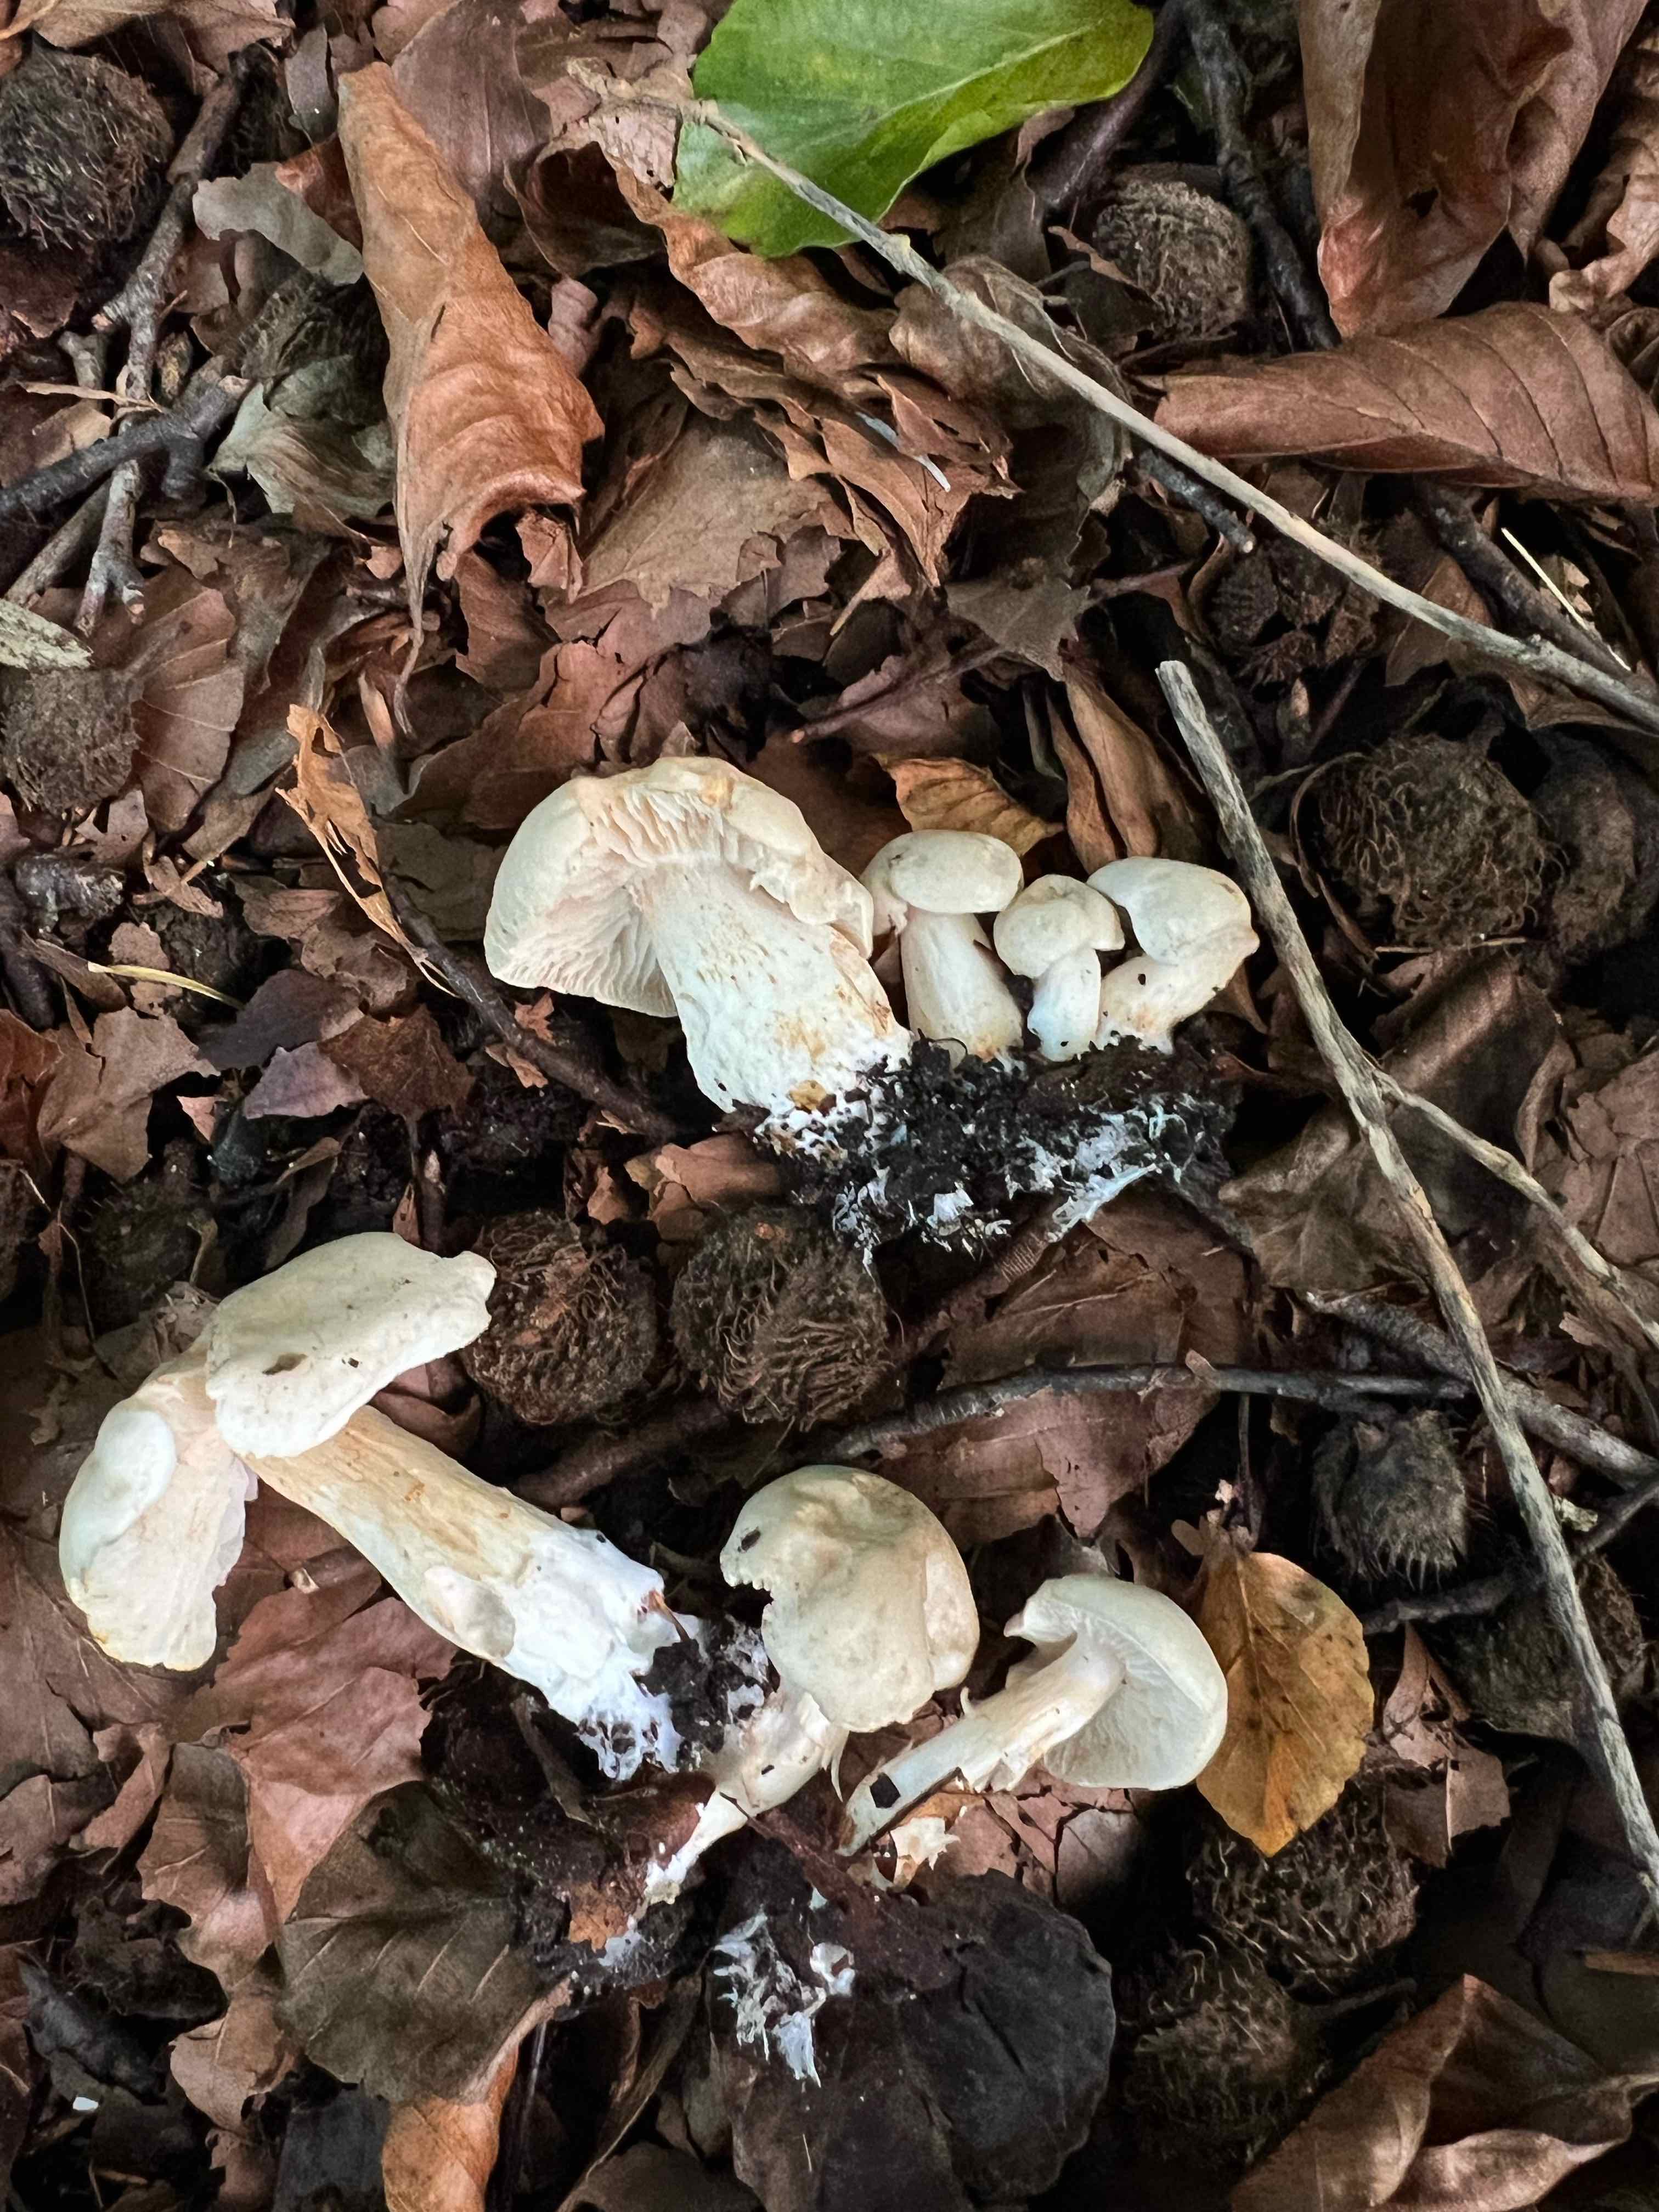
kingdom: Fungi
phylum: Basidiomycota
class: Agaricomycetes
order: Agaricales
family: Tricholomataceae
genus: Tricholoma
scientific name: Tricholoma lascivum
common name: stinkende ridderhat
